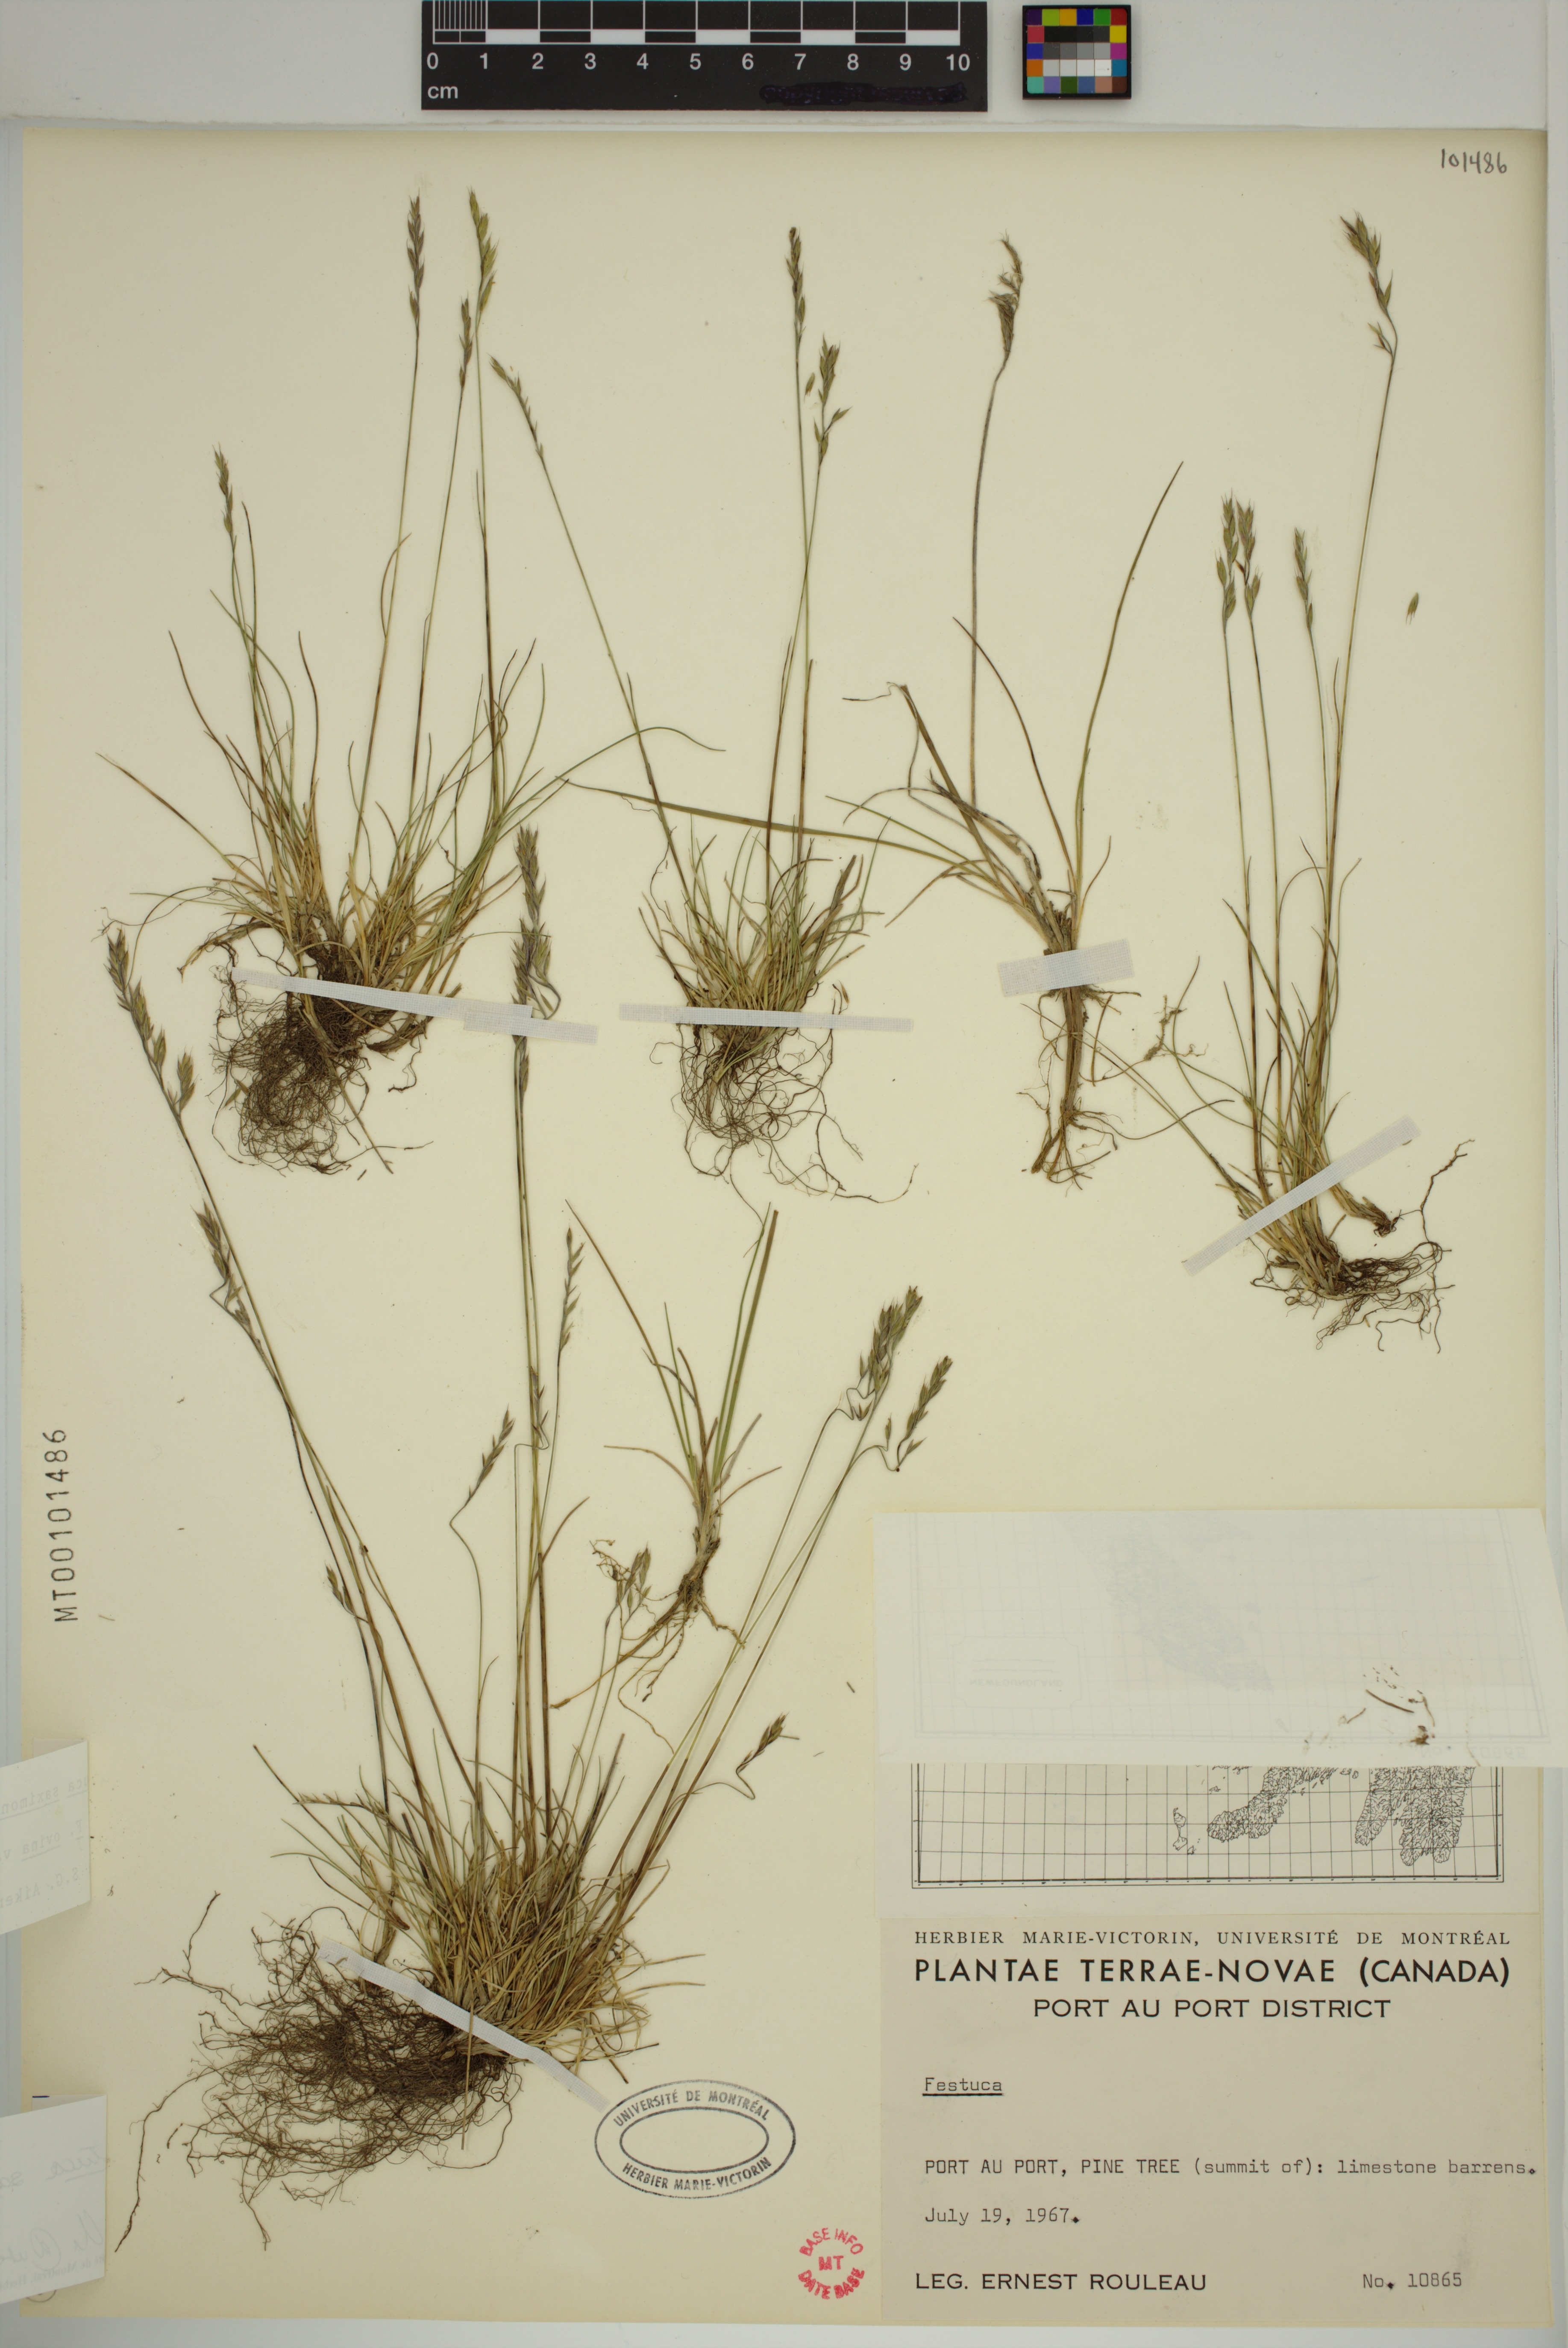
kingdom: Plantae
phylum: Tracheophyta
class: Liliopsida
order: Poales
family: Poaceae
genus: Festuca
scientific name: Festuca saximontana
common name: Mountain fescue
